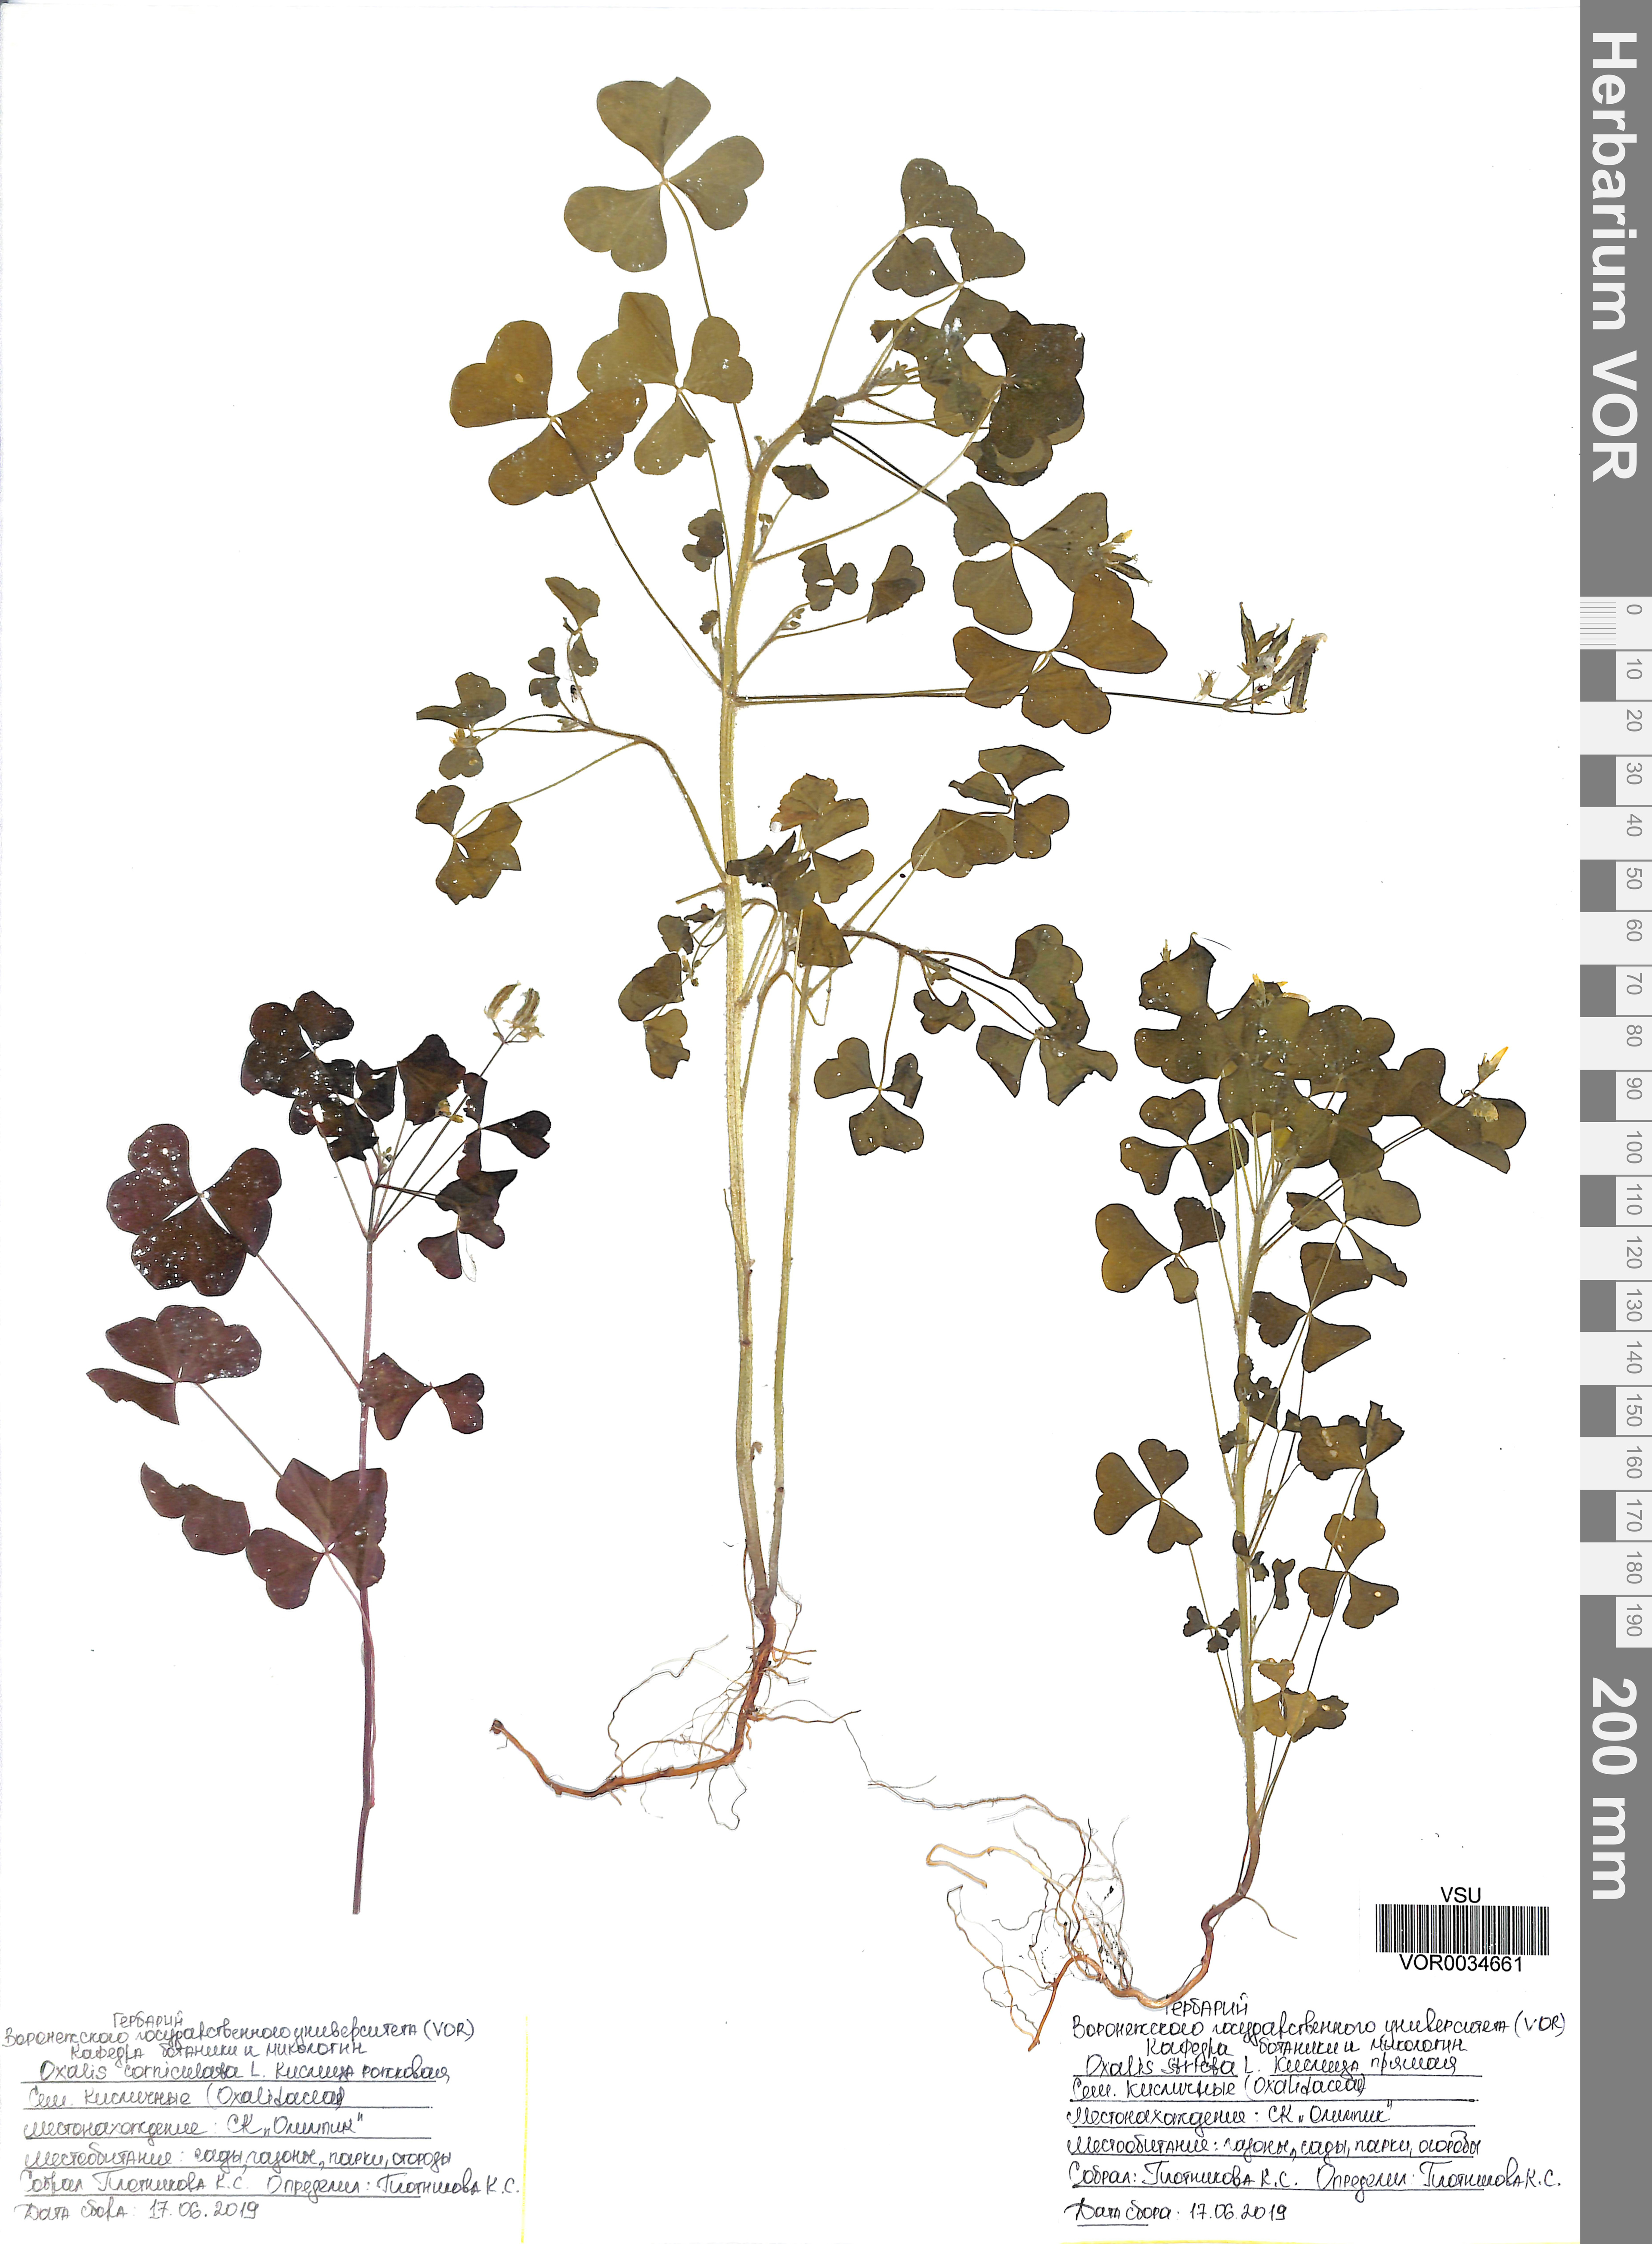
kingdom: Plantae
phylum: Tracheophyta
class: Magnoliopsida
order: Oxalidales
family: Oxalidaceae
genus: Oxalis
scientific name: Oxalis stricta
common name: Upright yellow-sorrel
